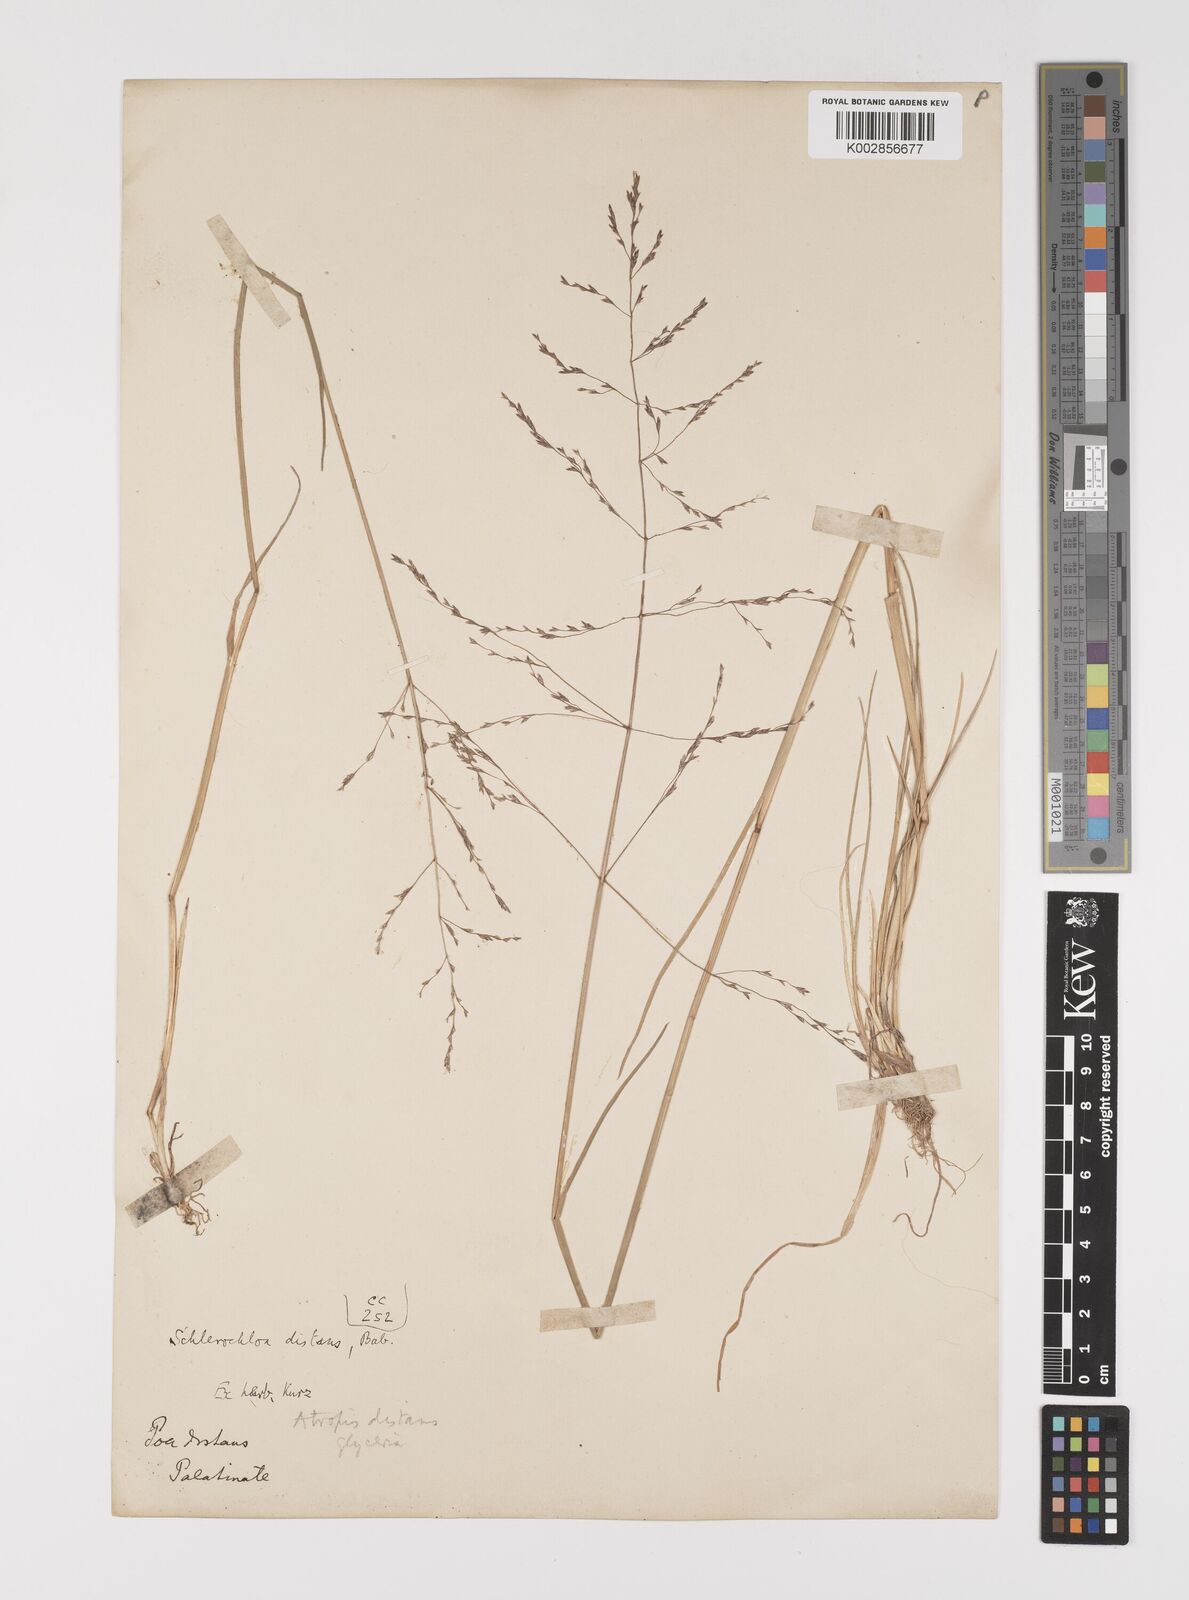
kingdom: Plantae
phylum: Tracheophyta
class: Liliopsida
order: Poales
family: Poaceae
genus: Puccinellia
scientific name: Puccinellia
